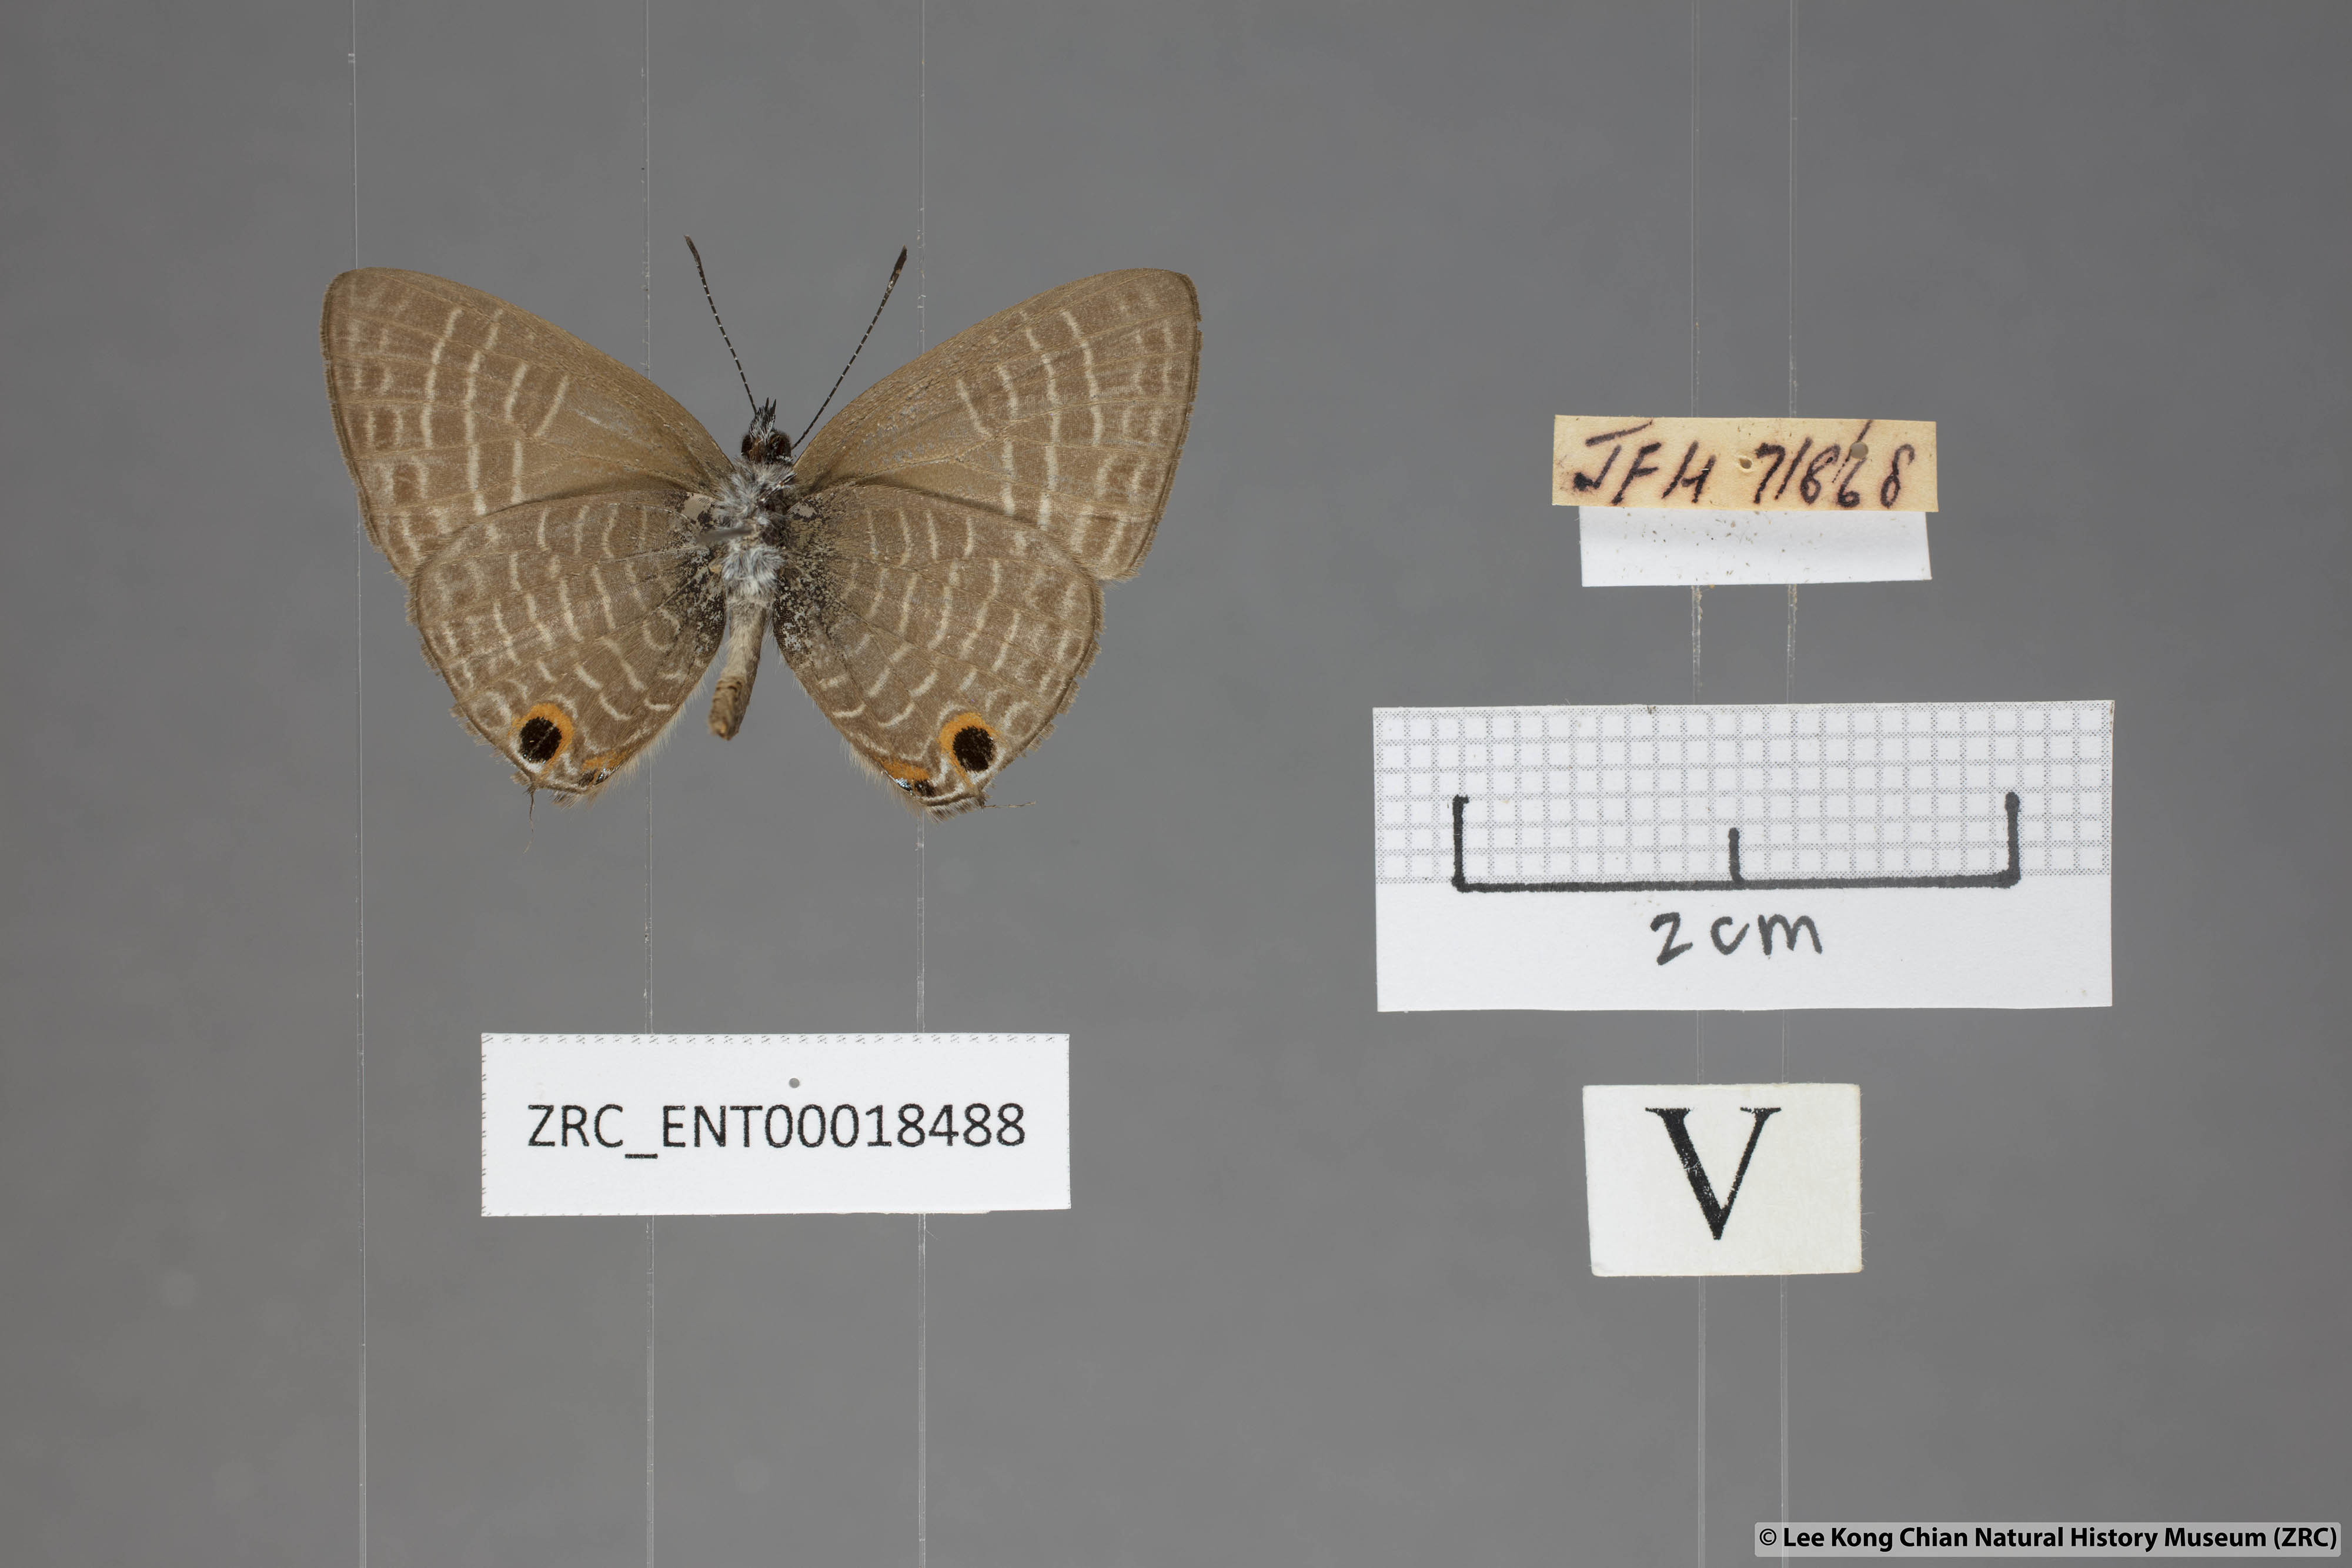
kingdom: Animalia
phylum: Arthropoda
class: Insecta
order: Lepidoptera
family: Lycaenidae
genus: Nacaduba
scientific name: Nacaduba subperusia
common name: Violet fourline blue
